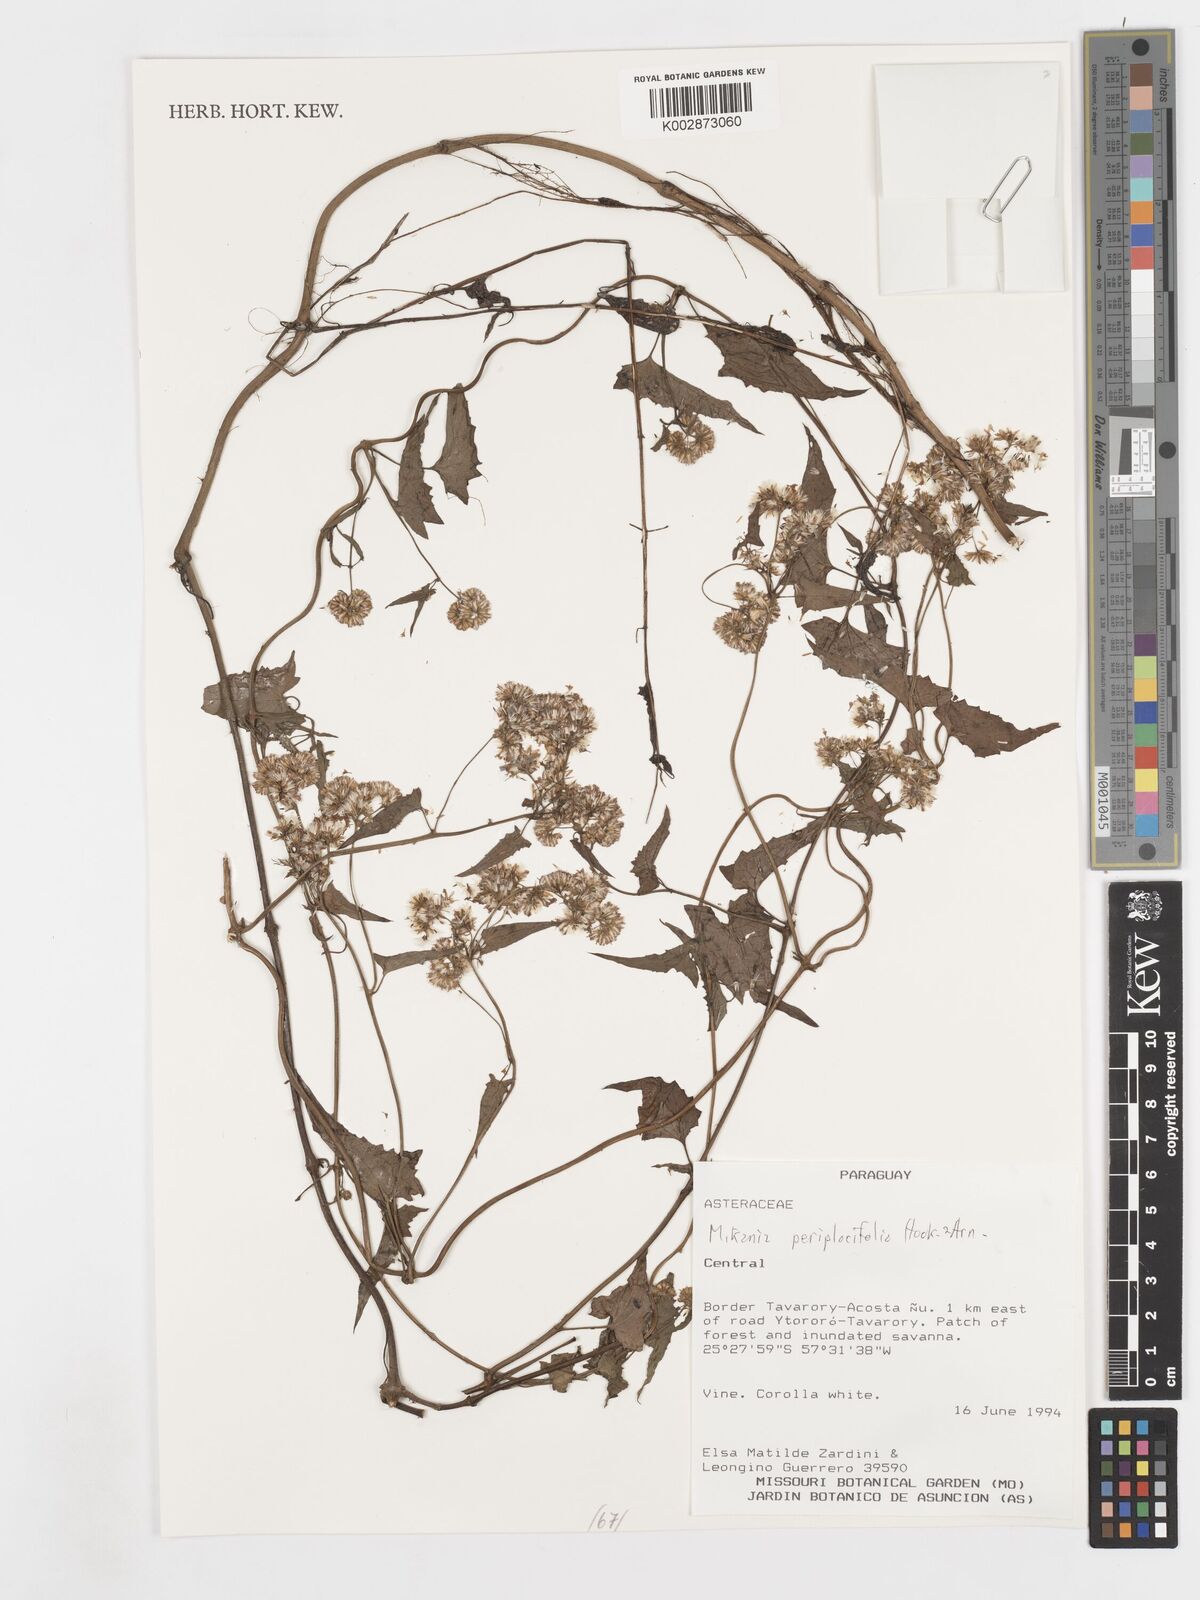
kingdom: Plantae
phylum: Tracheophyta
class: Magnoliopsida
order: Asterales
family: Asteraceae
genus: Mikania
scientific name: Mikania periplocifolia
